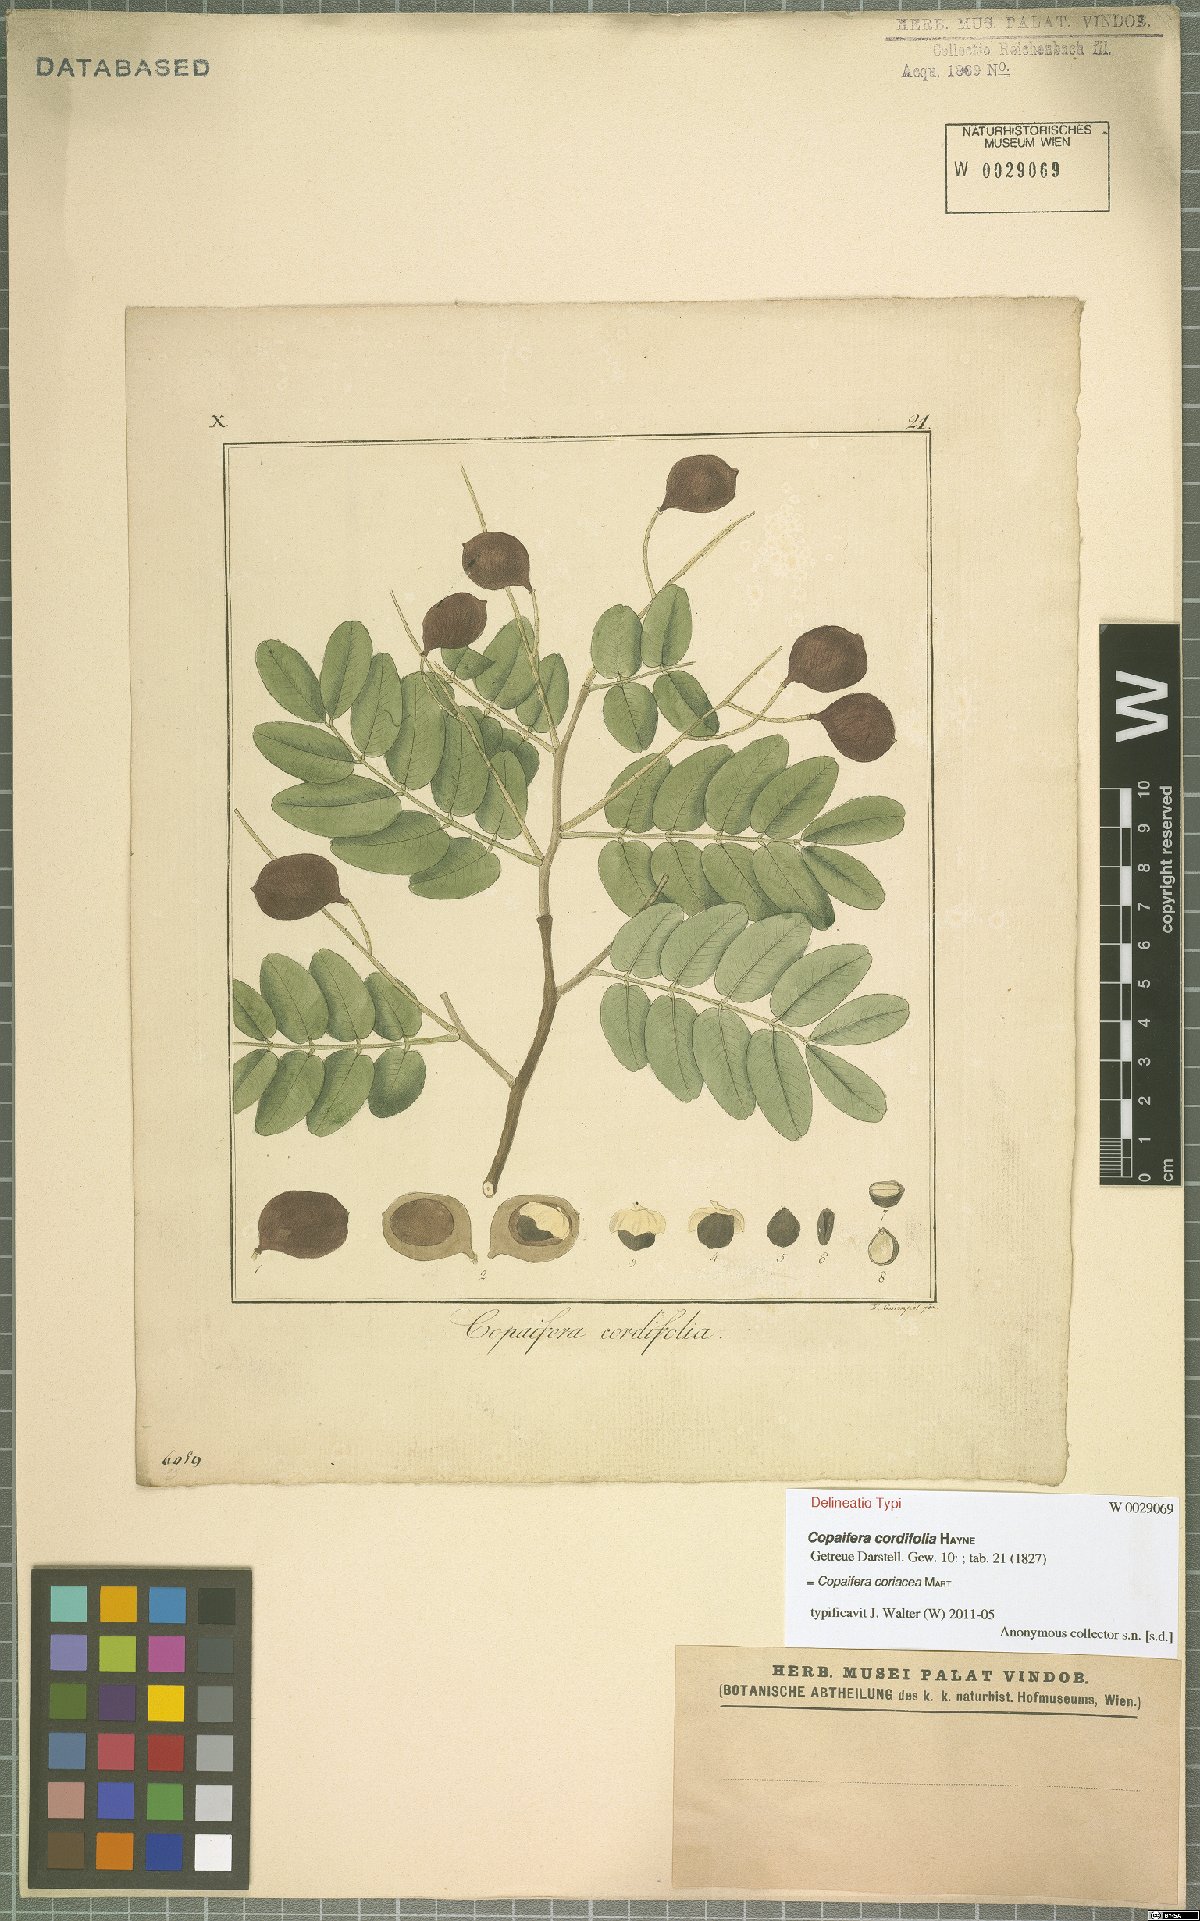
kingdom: Plantae
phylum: Tracheophyta
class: Magnoliopsida
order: Fabales
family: Fabaceae
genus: Copaifera
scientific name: Copaifera coriacea
